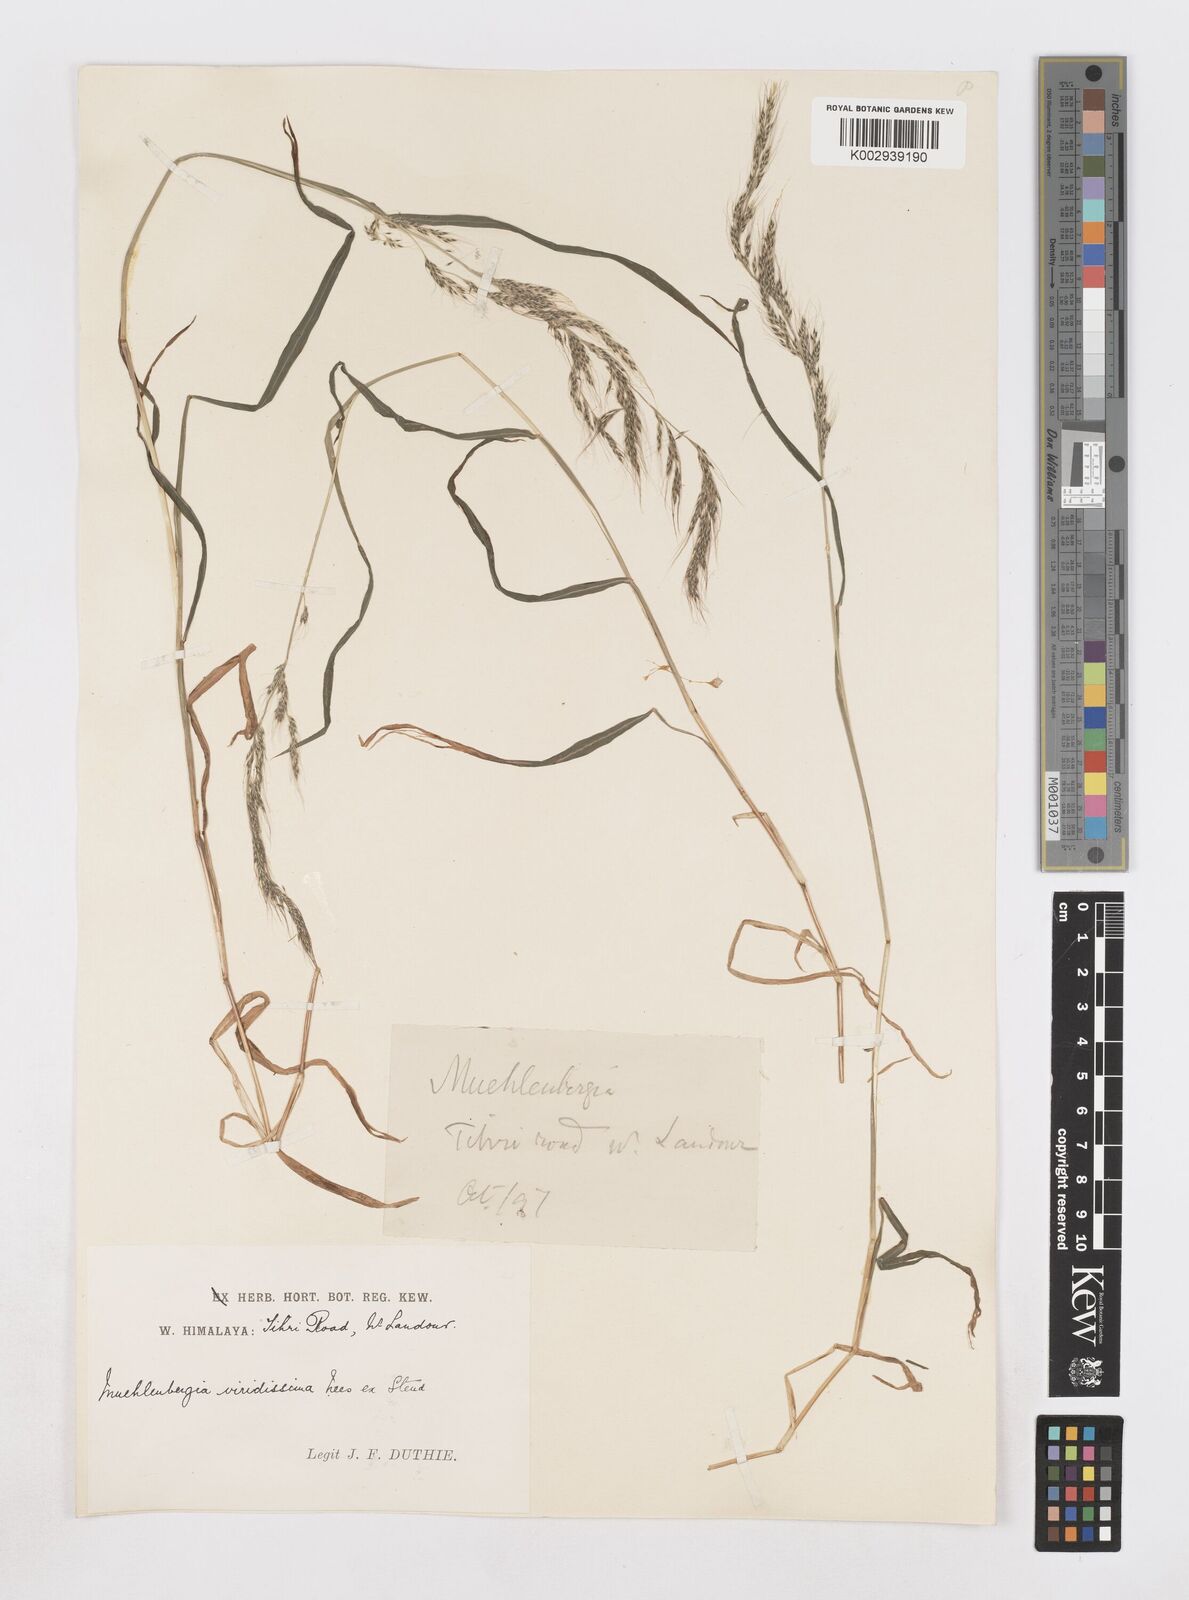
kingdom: Plantae
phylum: Tracheophyta
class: Liliopsida
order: Poales
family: Poaceae
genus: Muhlenbergia
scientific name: Muhlenbergia huegelii
